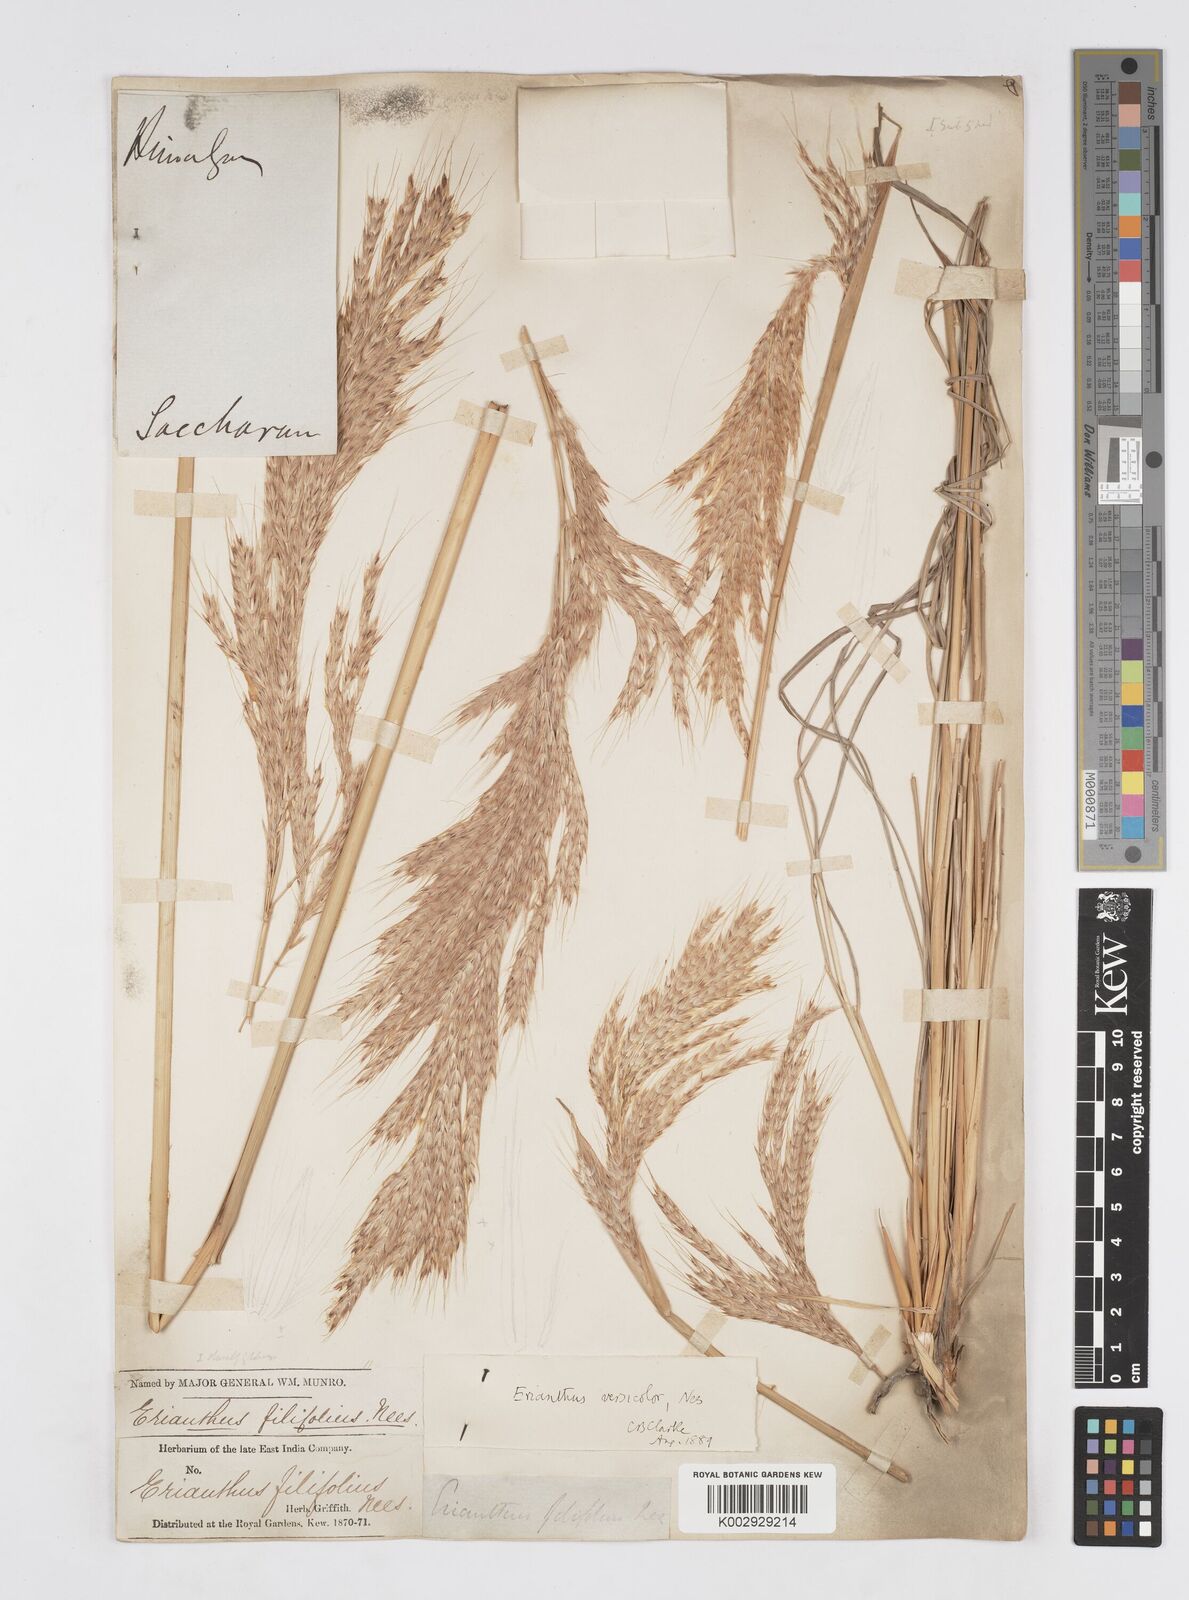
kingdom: Plantae
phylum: Tracheophyta
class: Liliopsida
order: Poales
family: Poaceae
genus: Melinis
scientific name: Melinis longiseta
